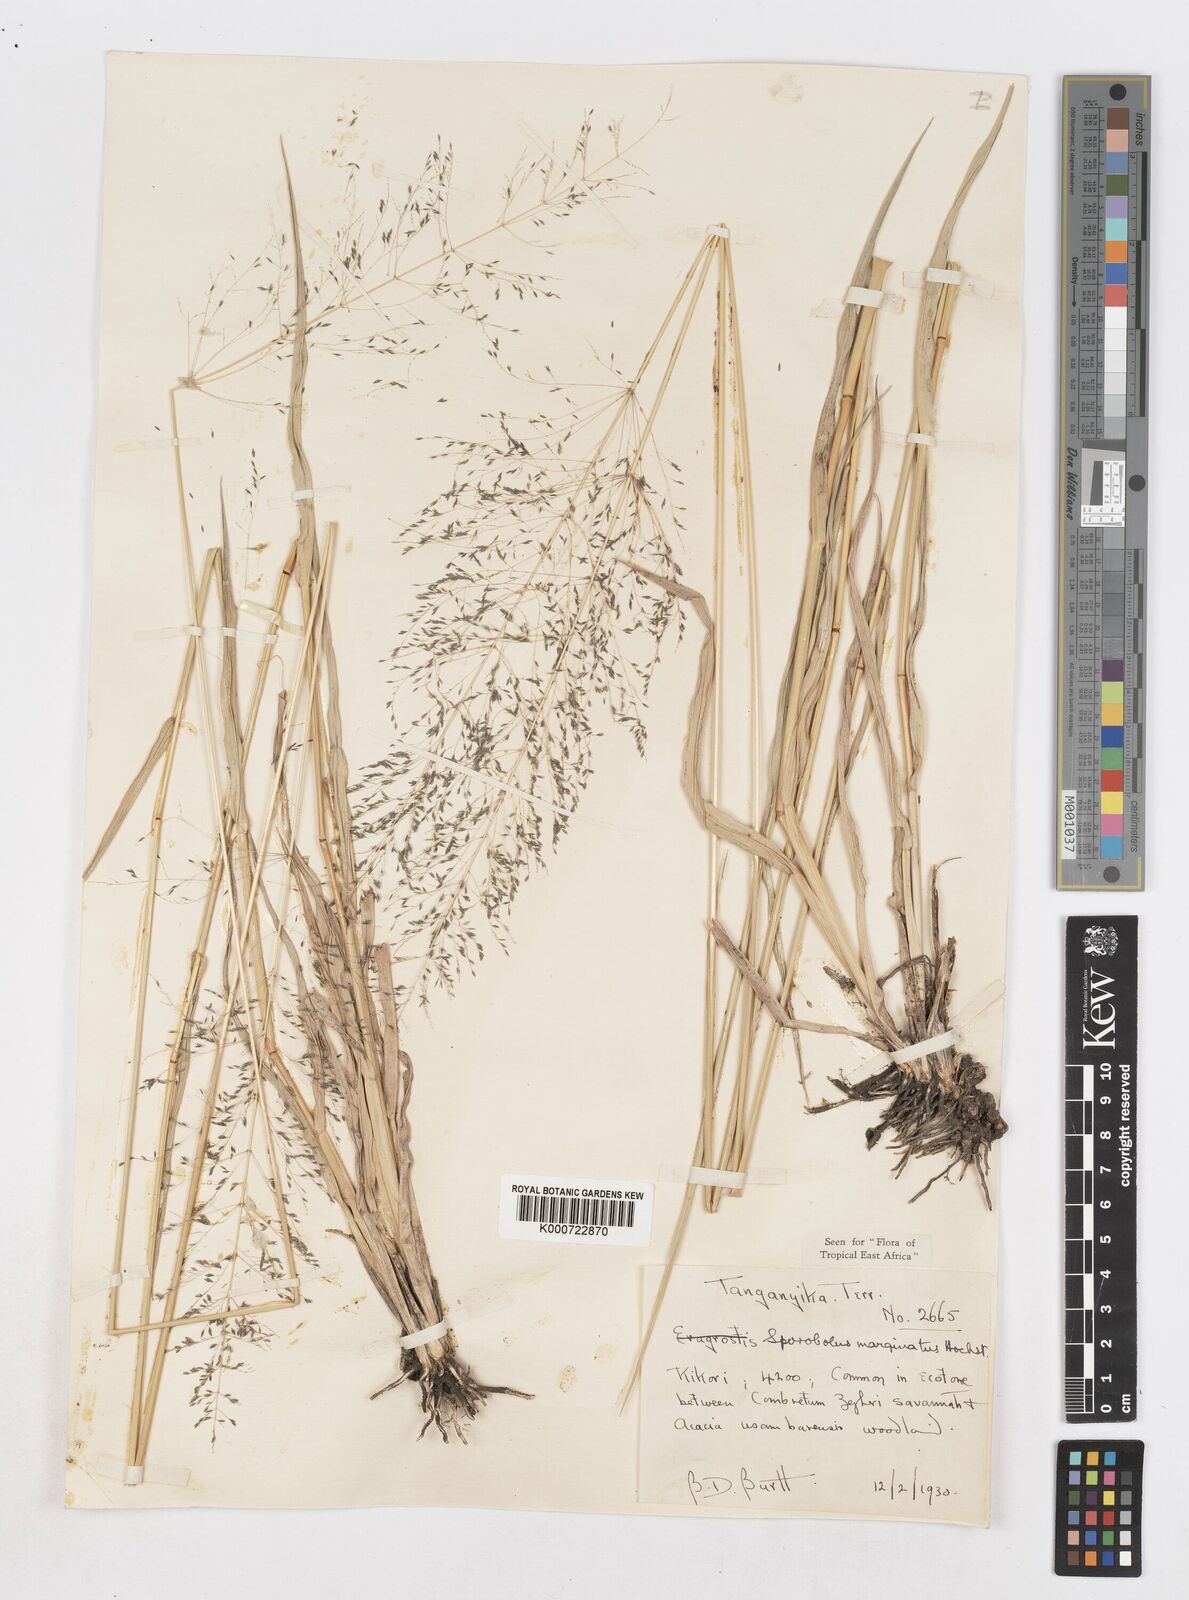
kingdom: Plantae
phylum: Tracheophyta
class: Liliopsida
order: Poales
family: Poaceae
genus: Sporobolus
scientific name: Sporobolus ioclados
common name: Pan dropseed
